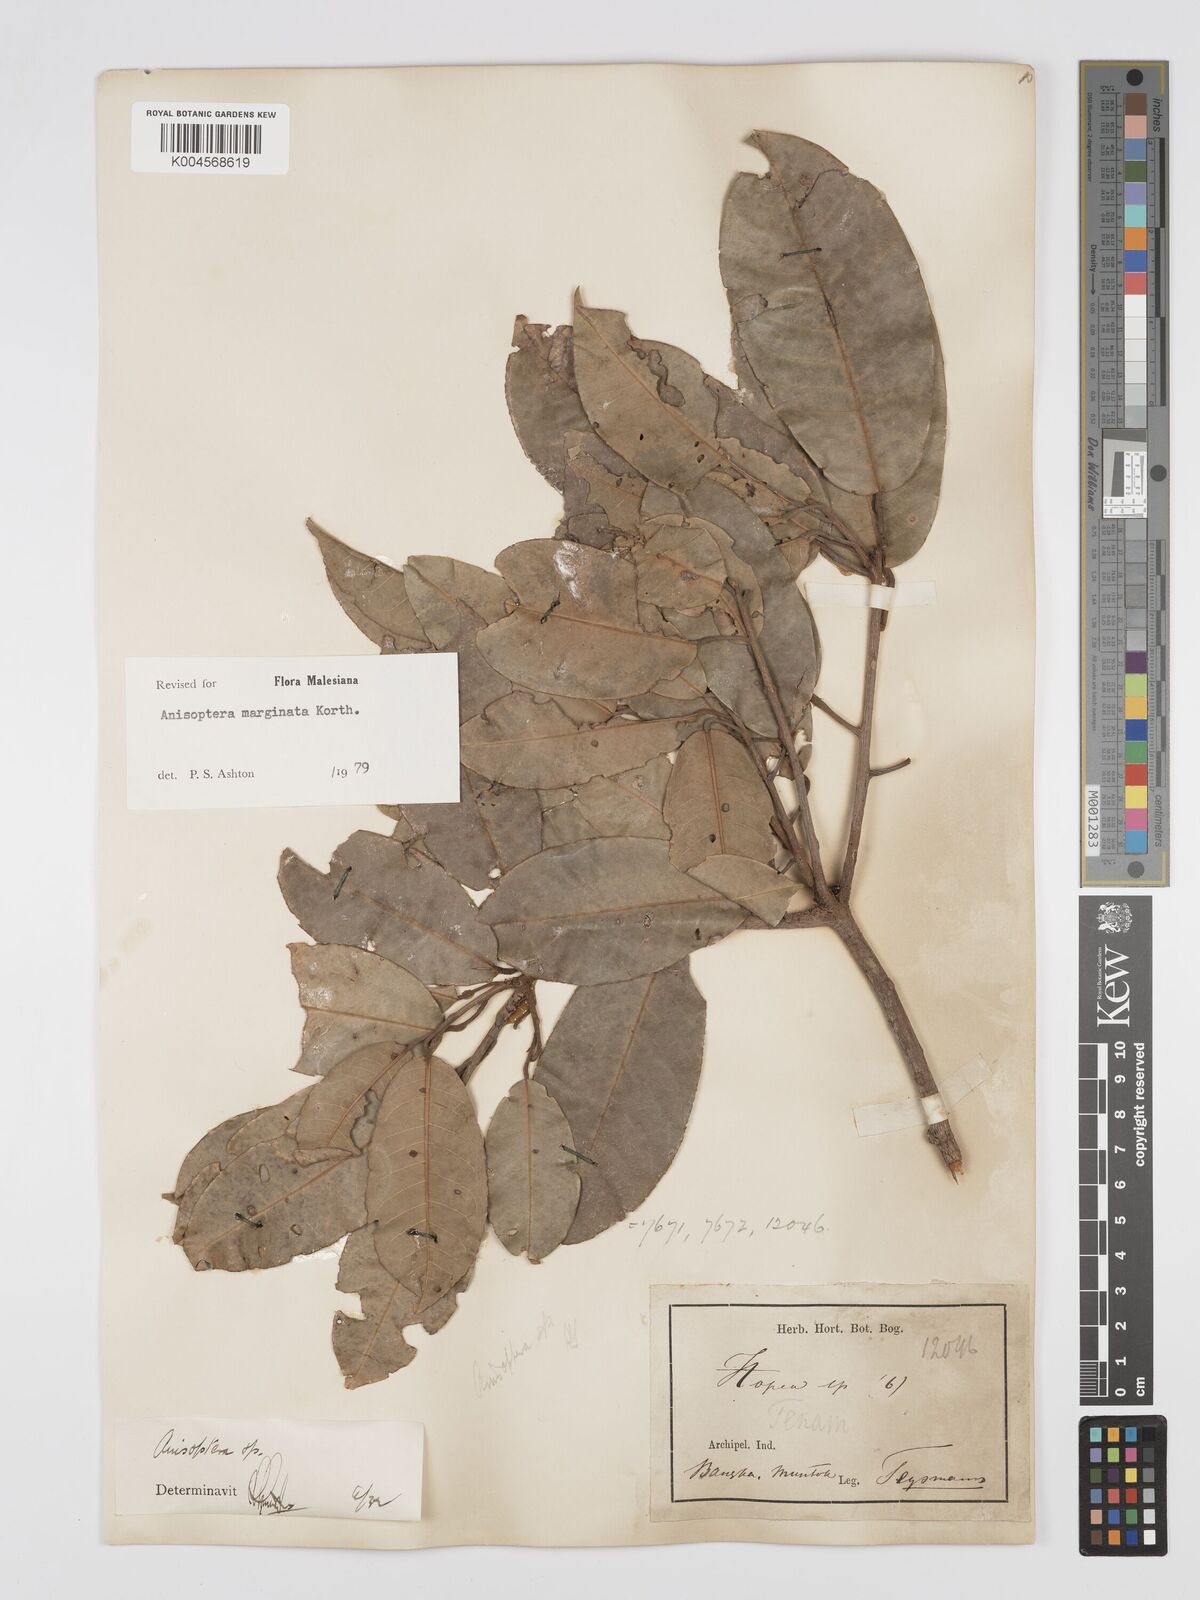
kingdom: Plantae
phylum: Tracheophyta
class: Magnoliopsida
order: Malvales
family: Dipterocarpaceae
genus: Anisoptera
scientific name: Anisoptera marginata
